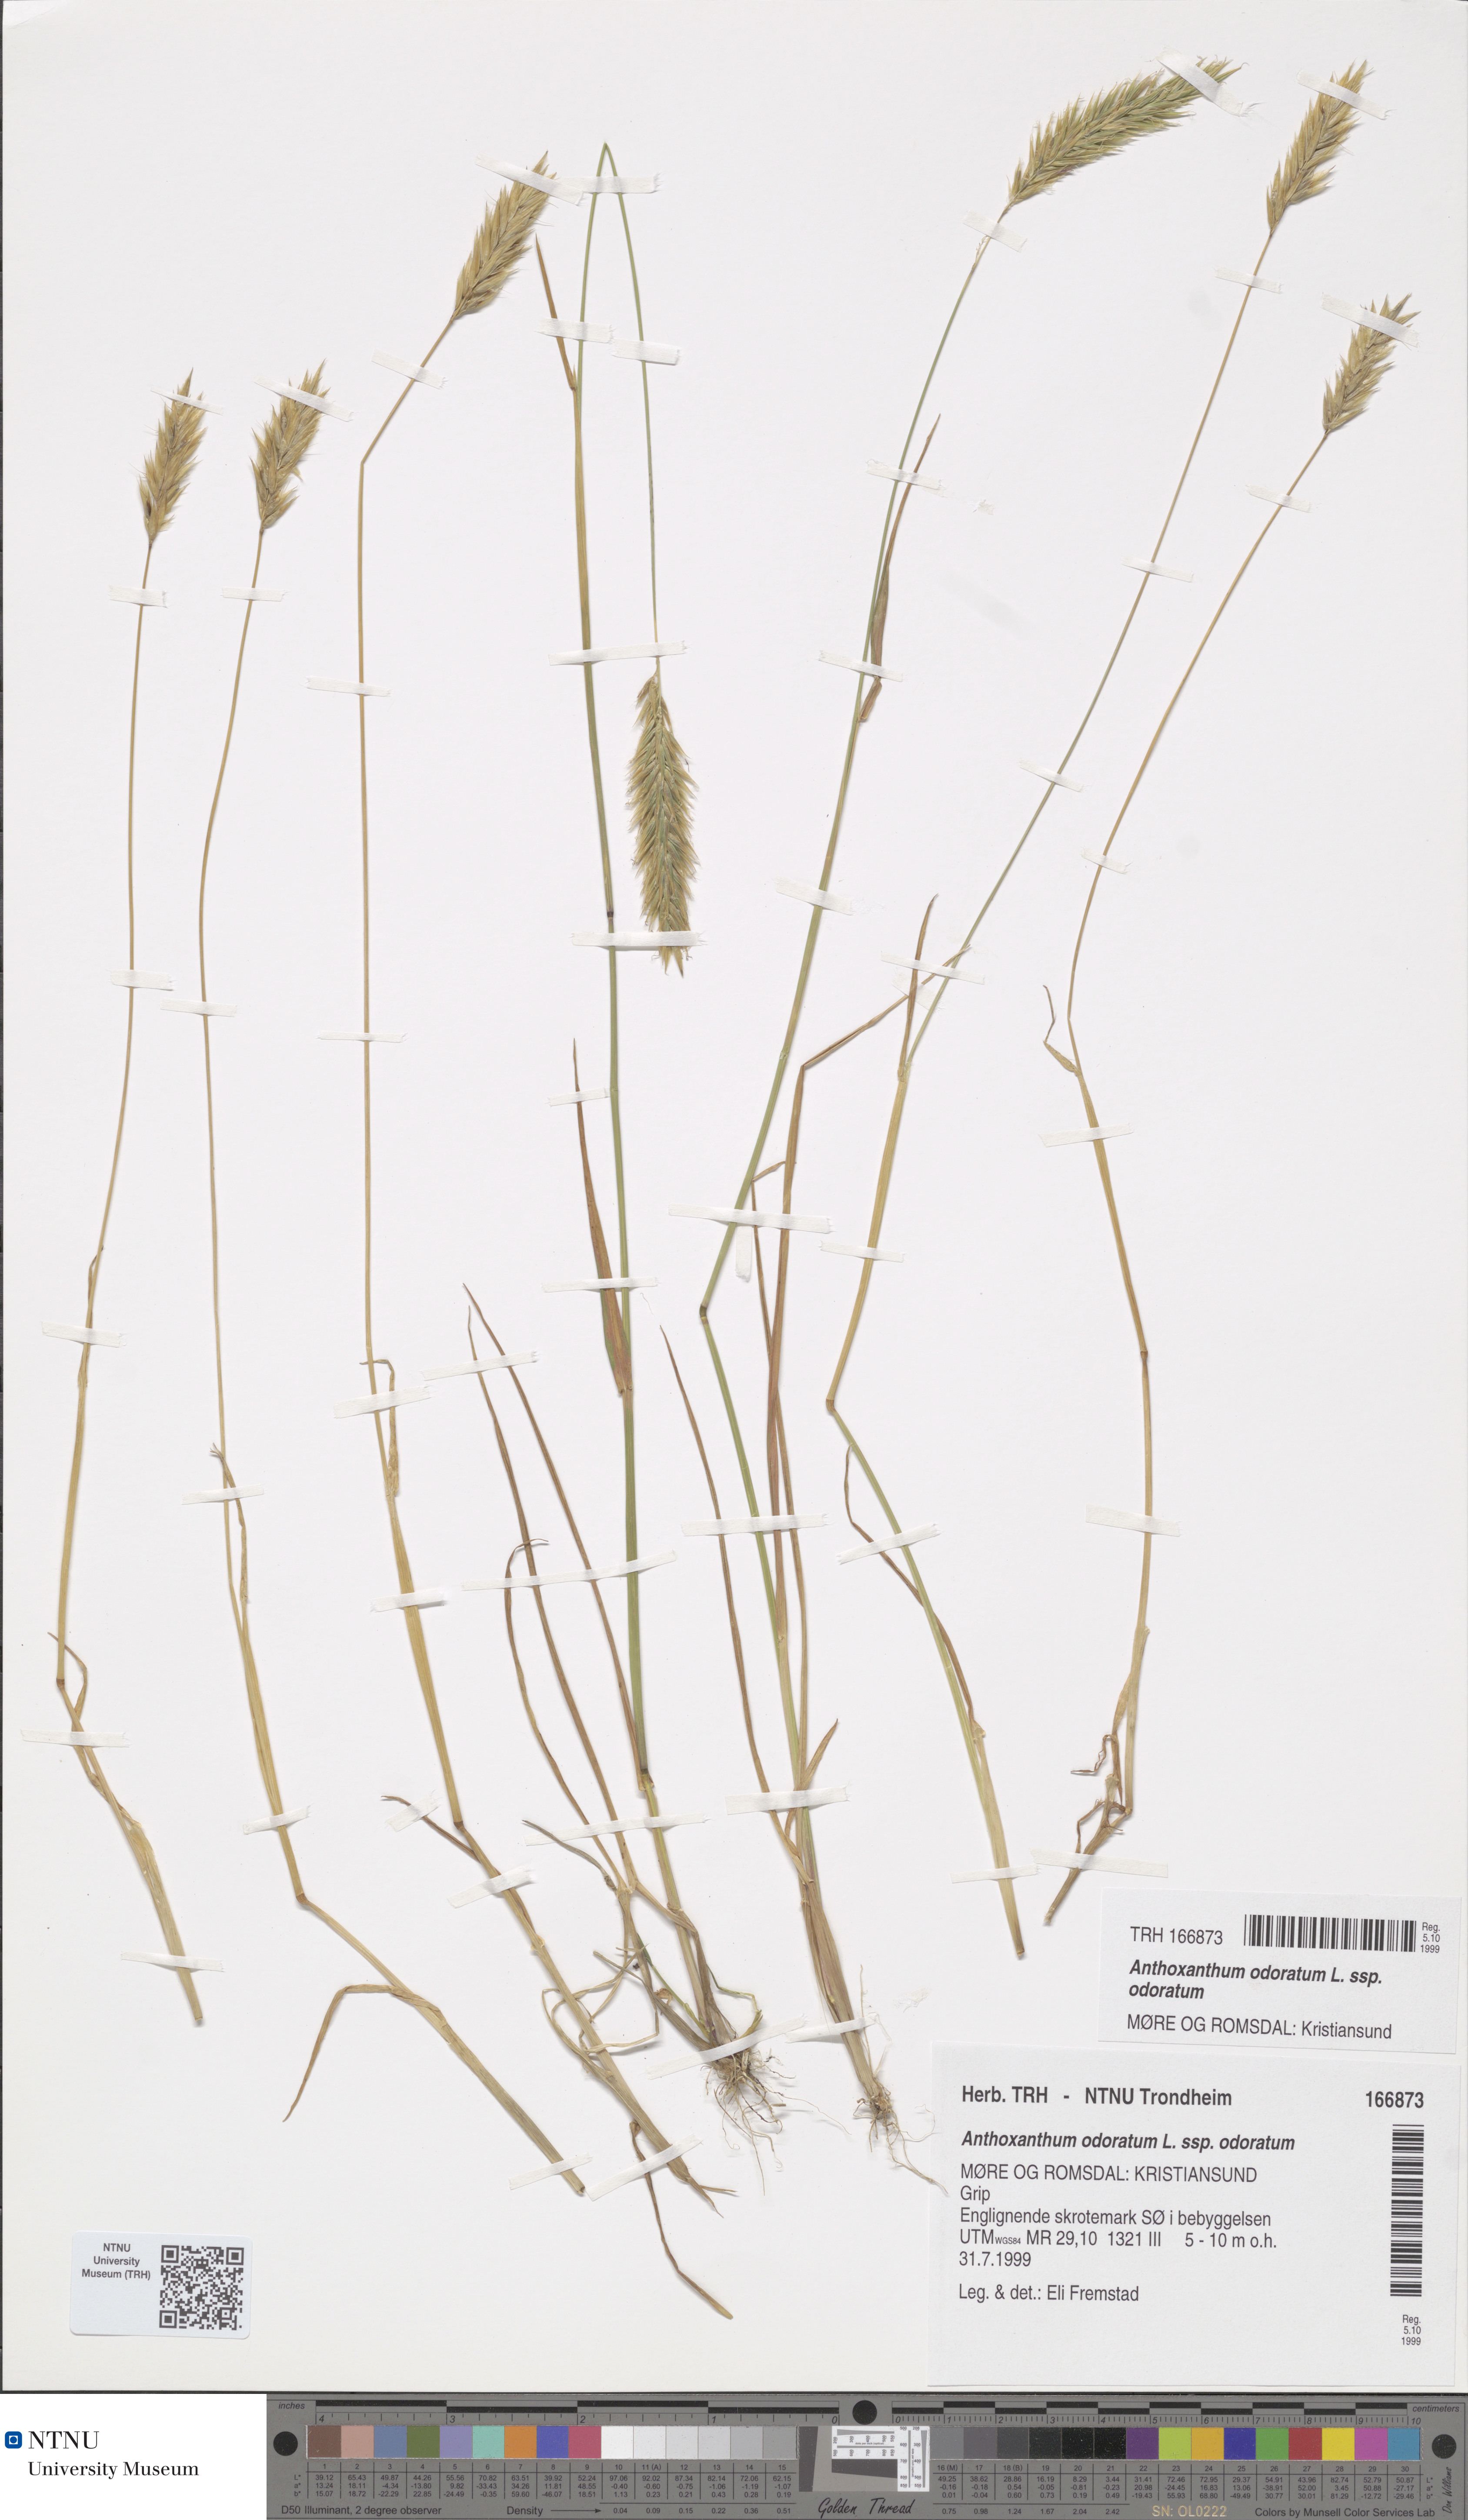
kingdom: Plantae
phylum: Tracheophyta
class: Liliopsida
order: Poales
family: Poaceae
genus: Anthoxanthum
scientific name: Anthoxanthum odoratum
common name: Sweet vernalgrass
